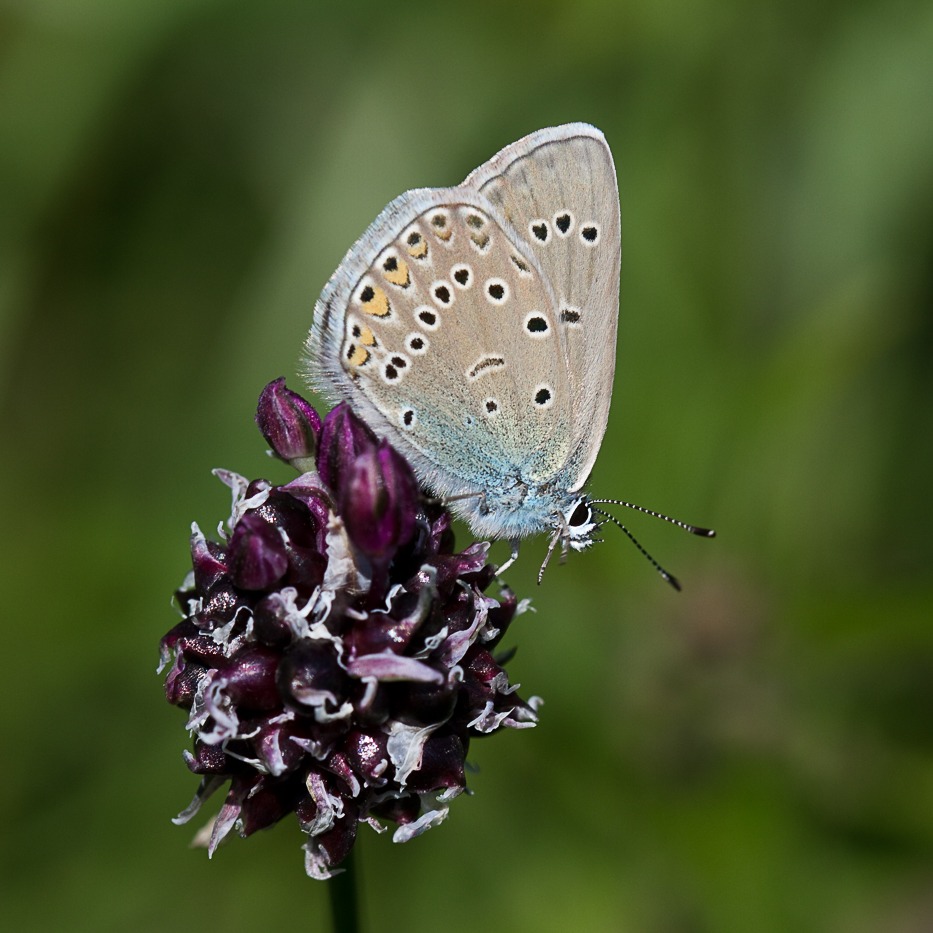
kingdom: Animalia
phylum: Arthropoda
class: Insecta
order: Lepidoptera
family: Lycaenidae
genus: Plebejus
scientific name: Plebejus amanda
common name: Isblåfugl
